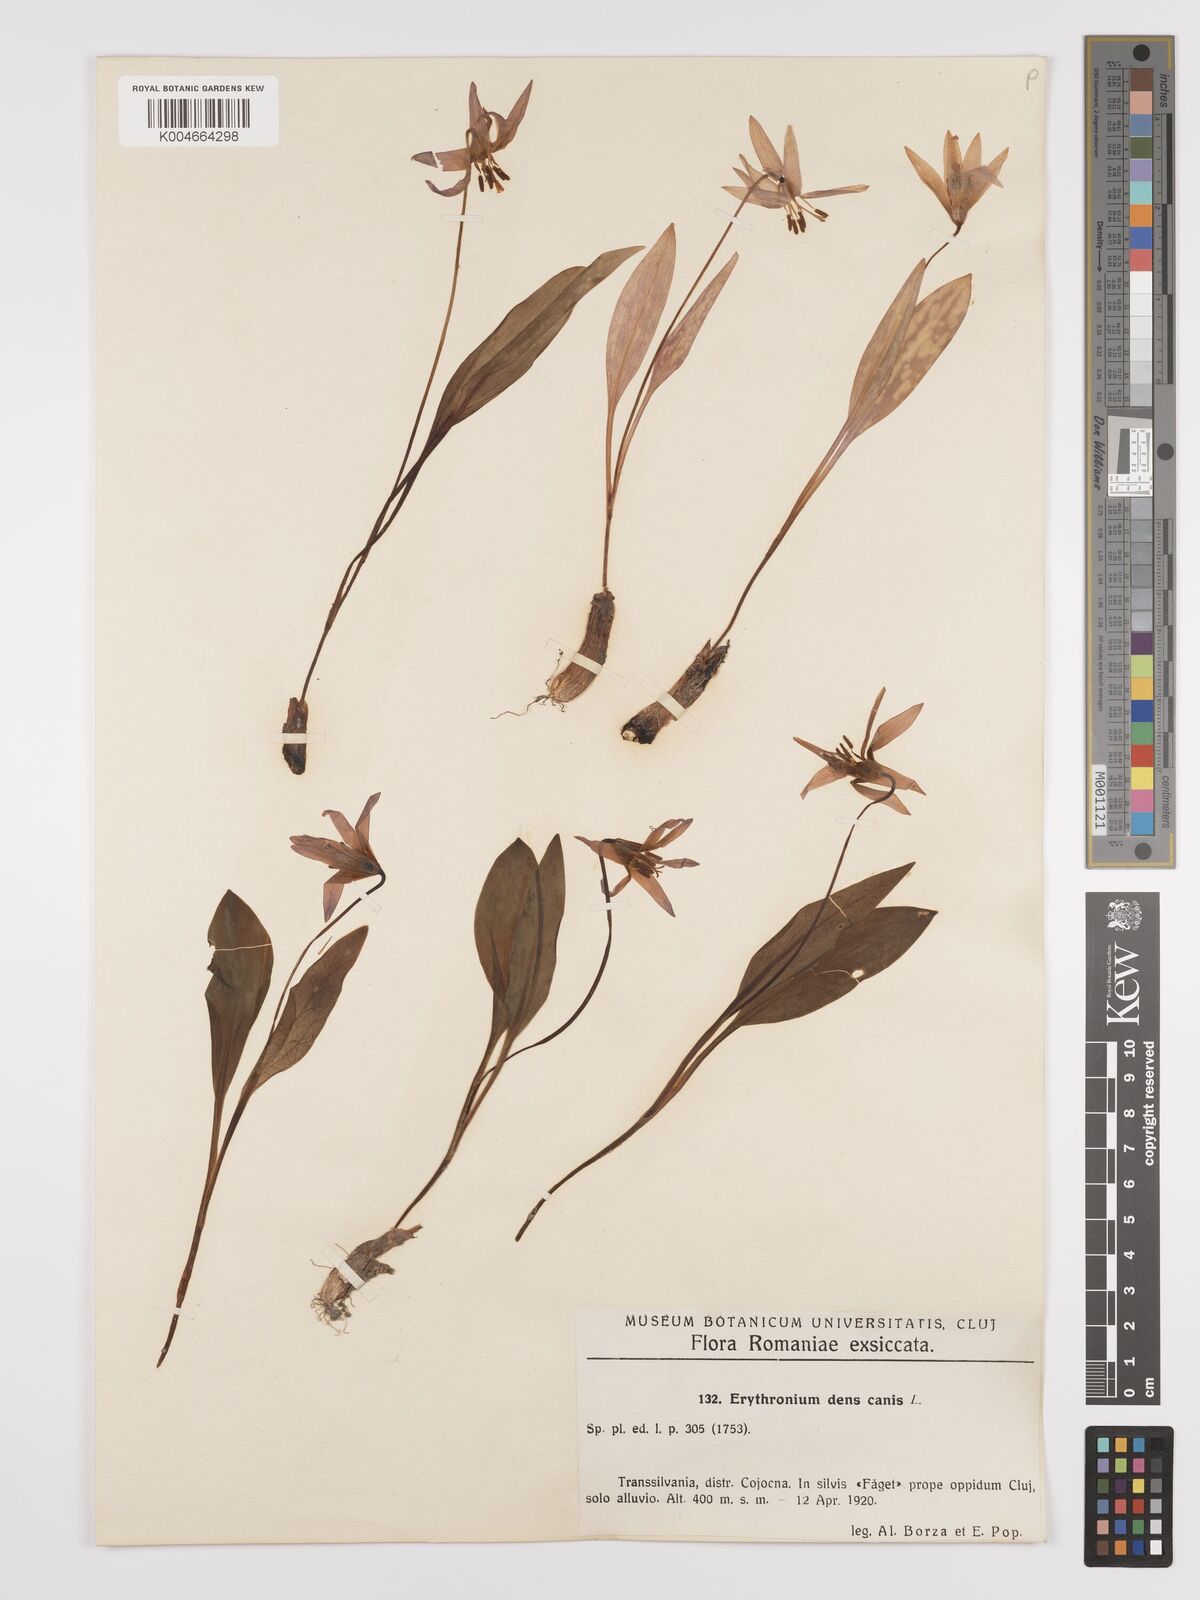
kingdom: Plantae
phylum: Tracheophyta
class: Liliopsida
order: Liliales
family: Liliaceae
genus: Erythronium
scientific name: Erythronium dens-canis
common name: Dog's-tooth-violet
